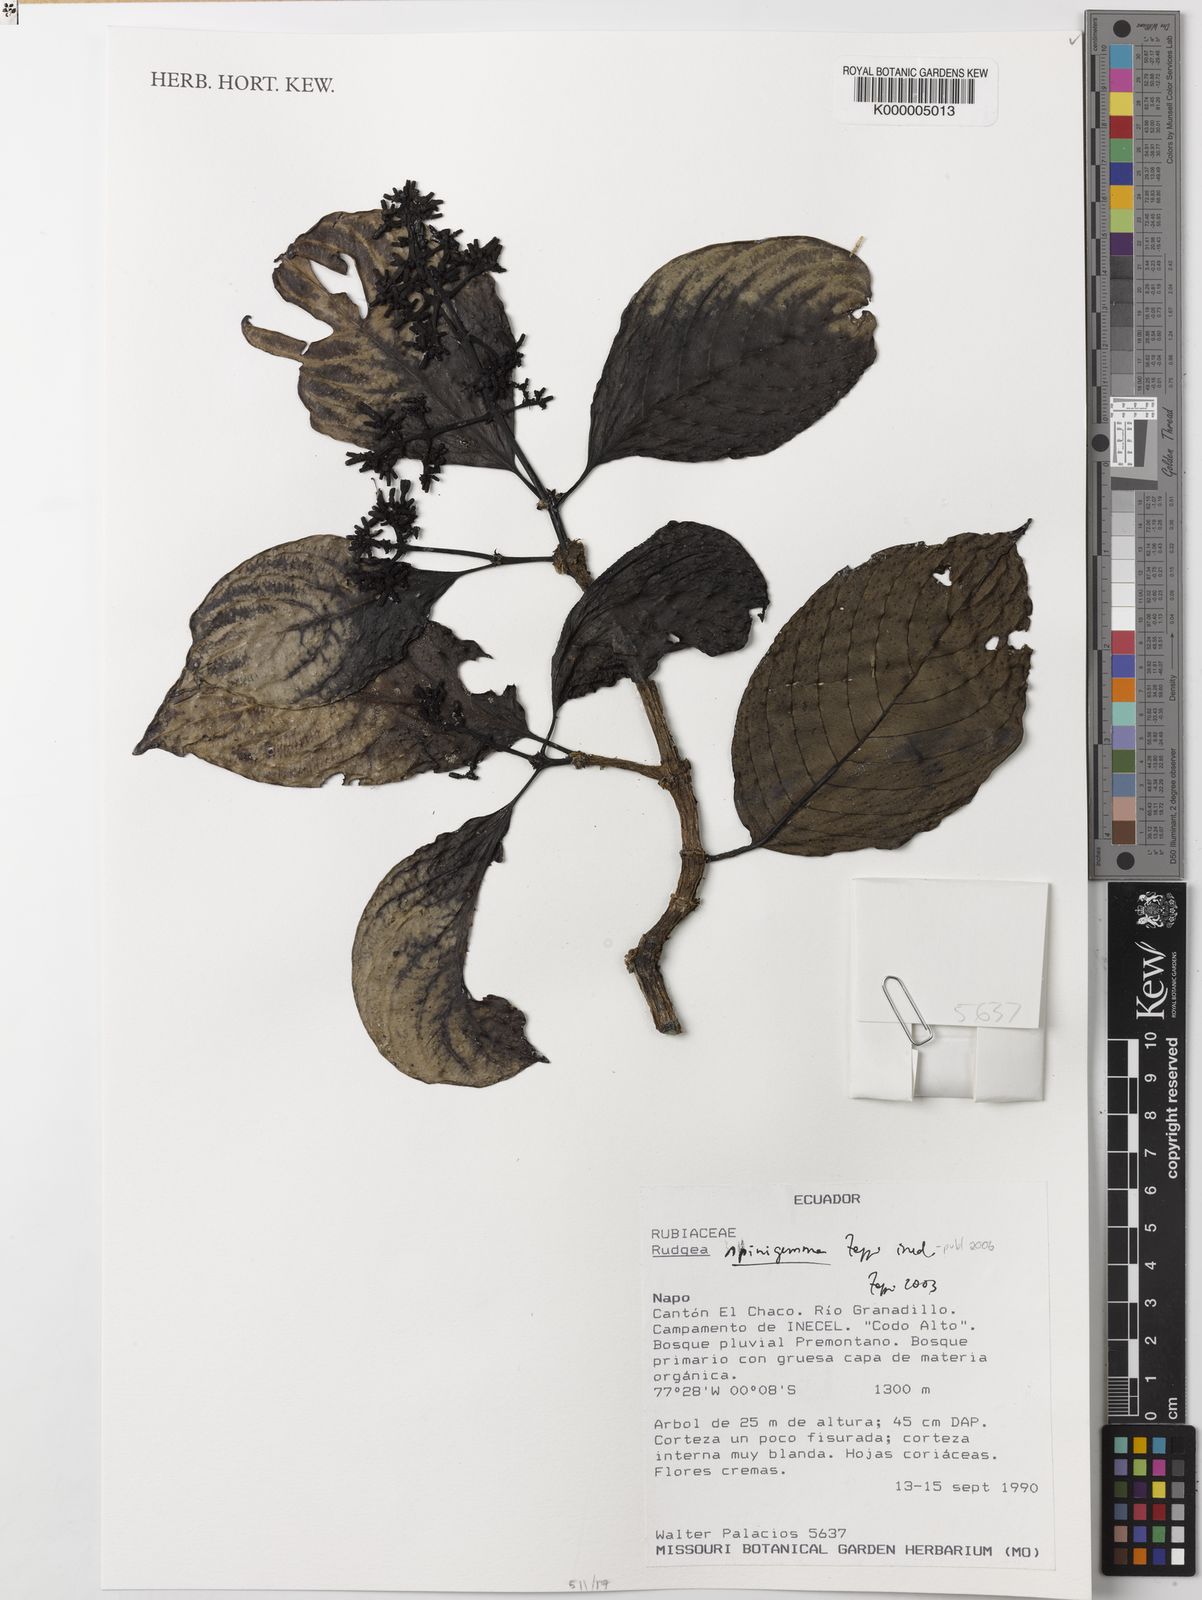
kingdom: Plantae
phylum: Tracheophyta
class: Magnoliopsida
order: Gentianales
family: Rubiaceae
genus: Rudgea
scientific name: Rudgea spinigemma
